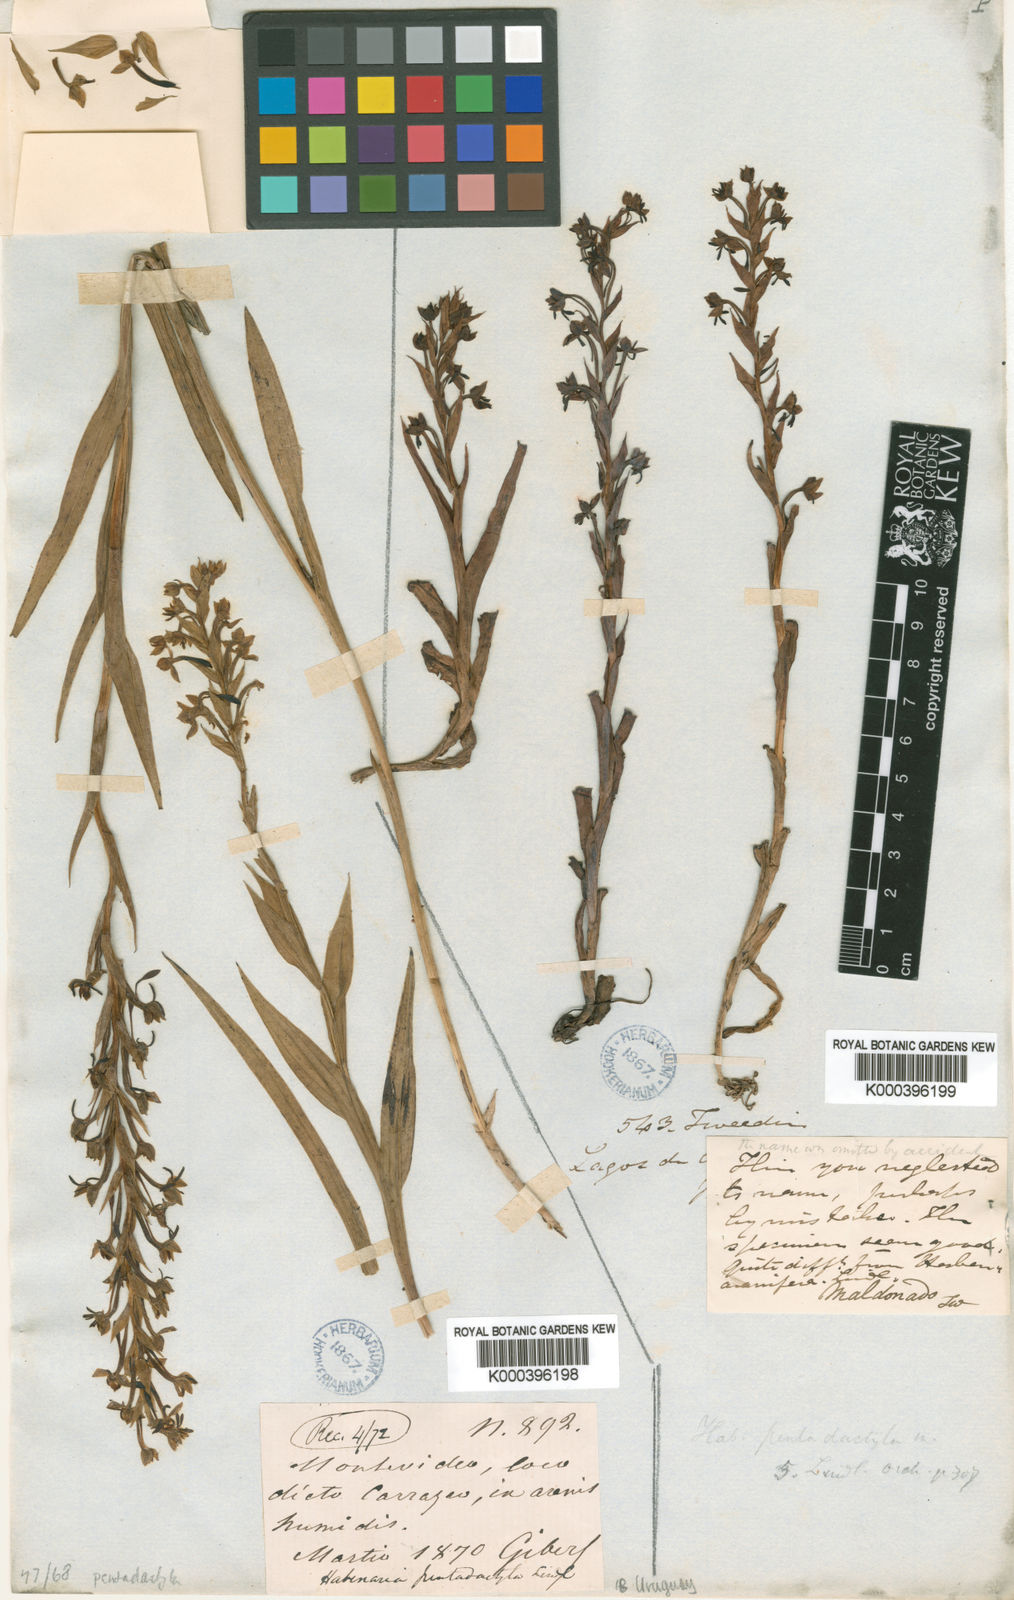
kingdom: Plantae
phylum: Tracheophyta
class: Liliopsida
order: Asparagales
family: Orchidaceae
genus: Habenaria
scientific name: Habenaria pentadactyla
